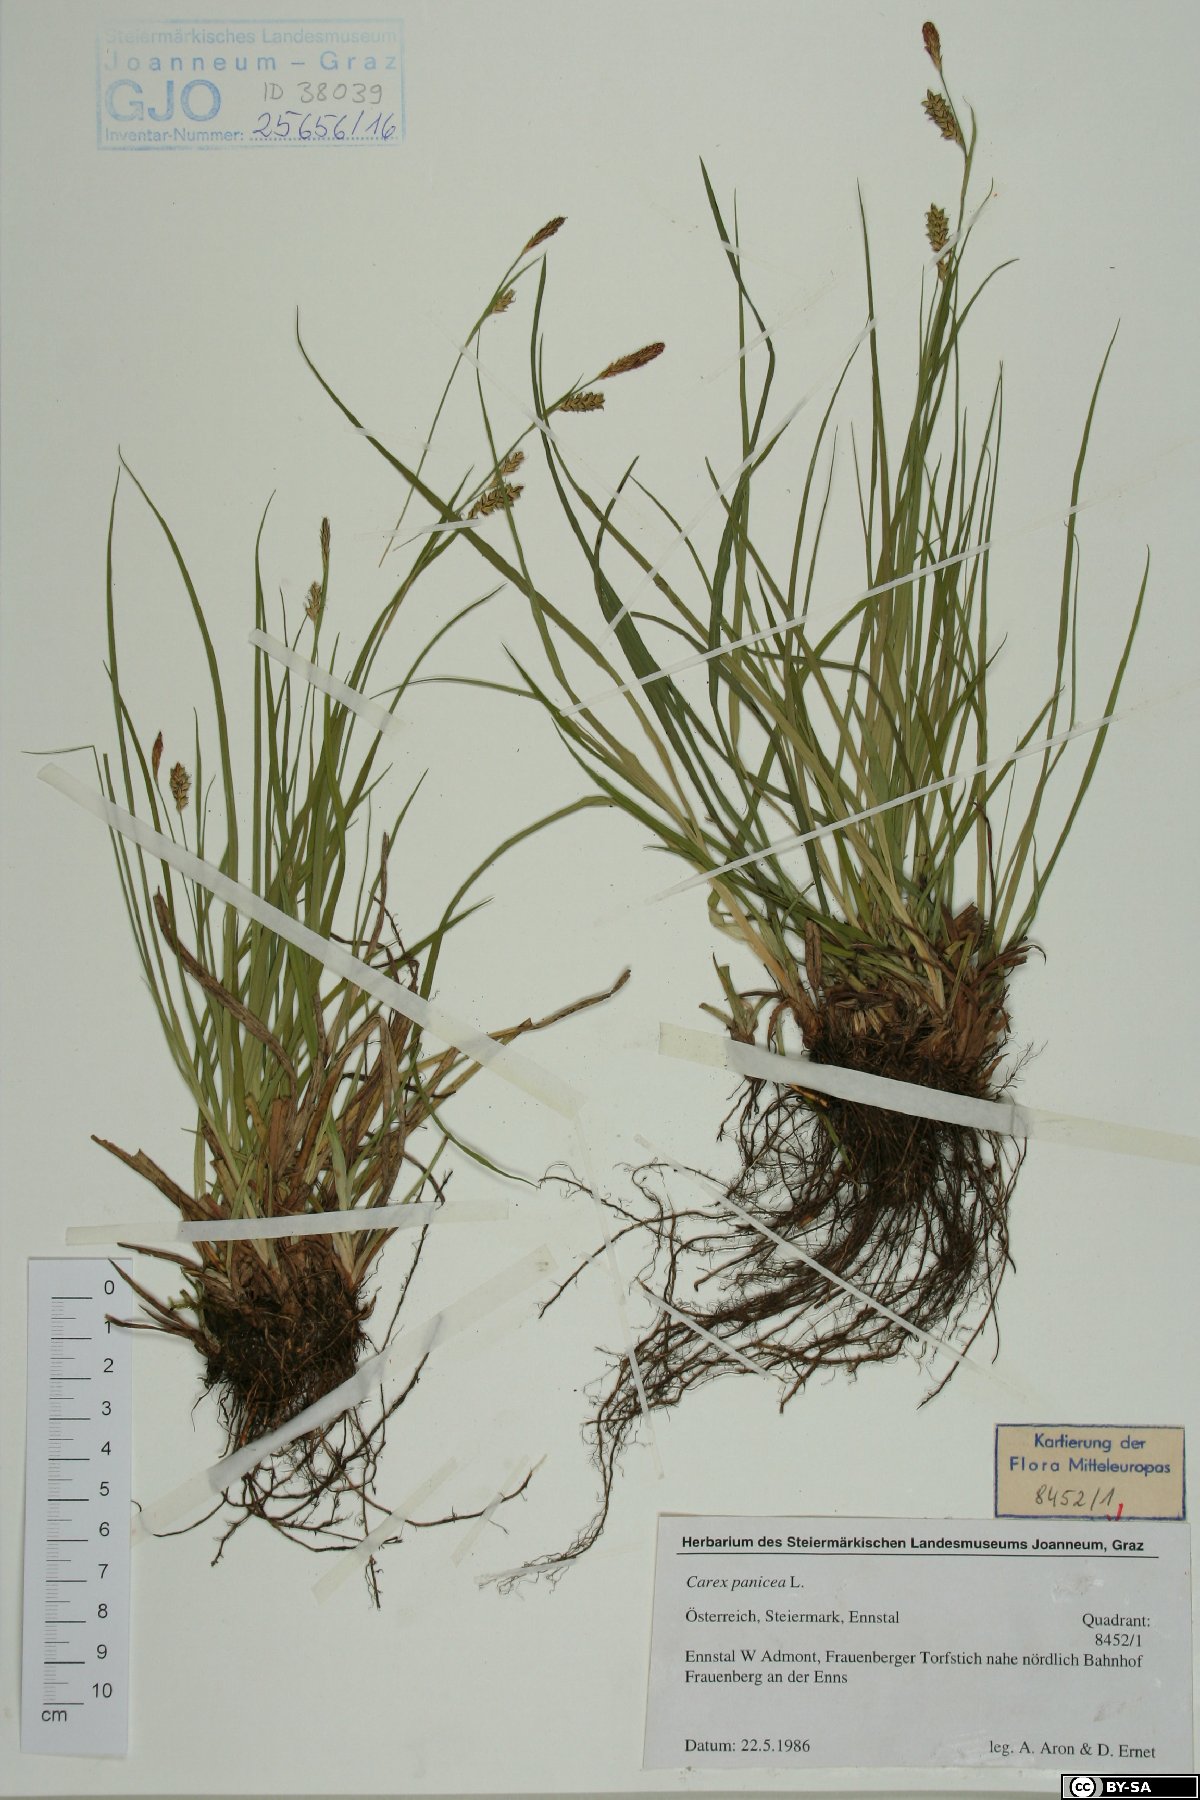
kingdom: Plantae
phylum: Tracheophyta
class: Liliopsida
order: Poales
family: Cyperaceae
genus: Carex
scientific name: Carex panicea
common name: Carnation sedge
